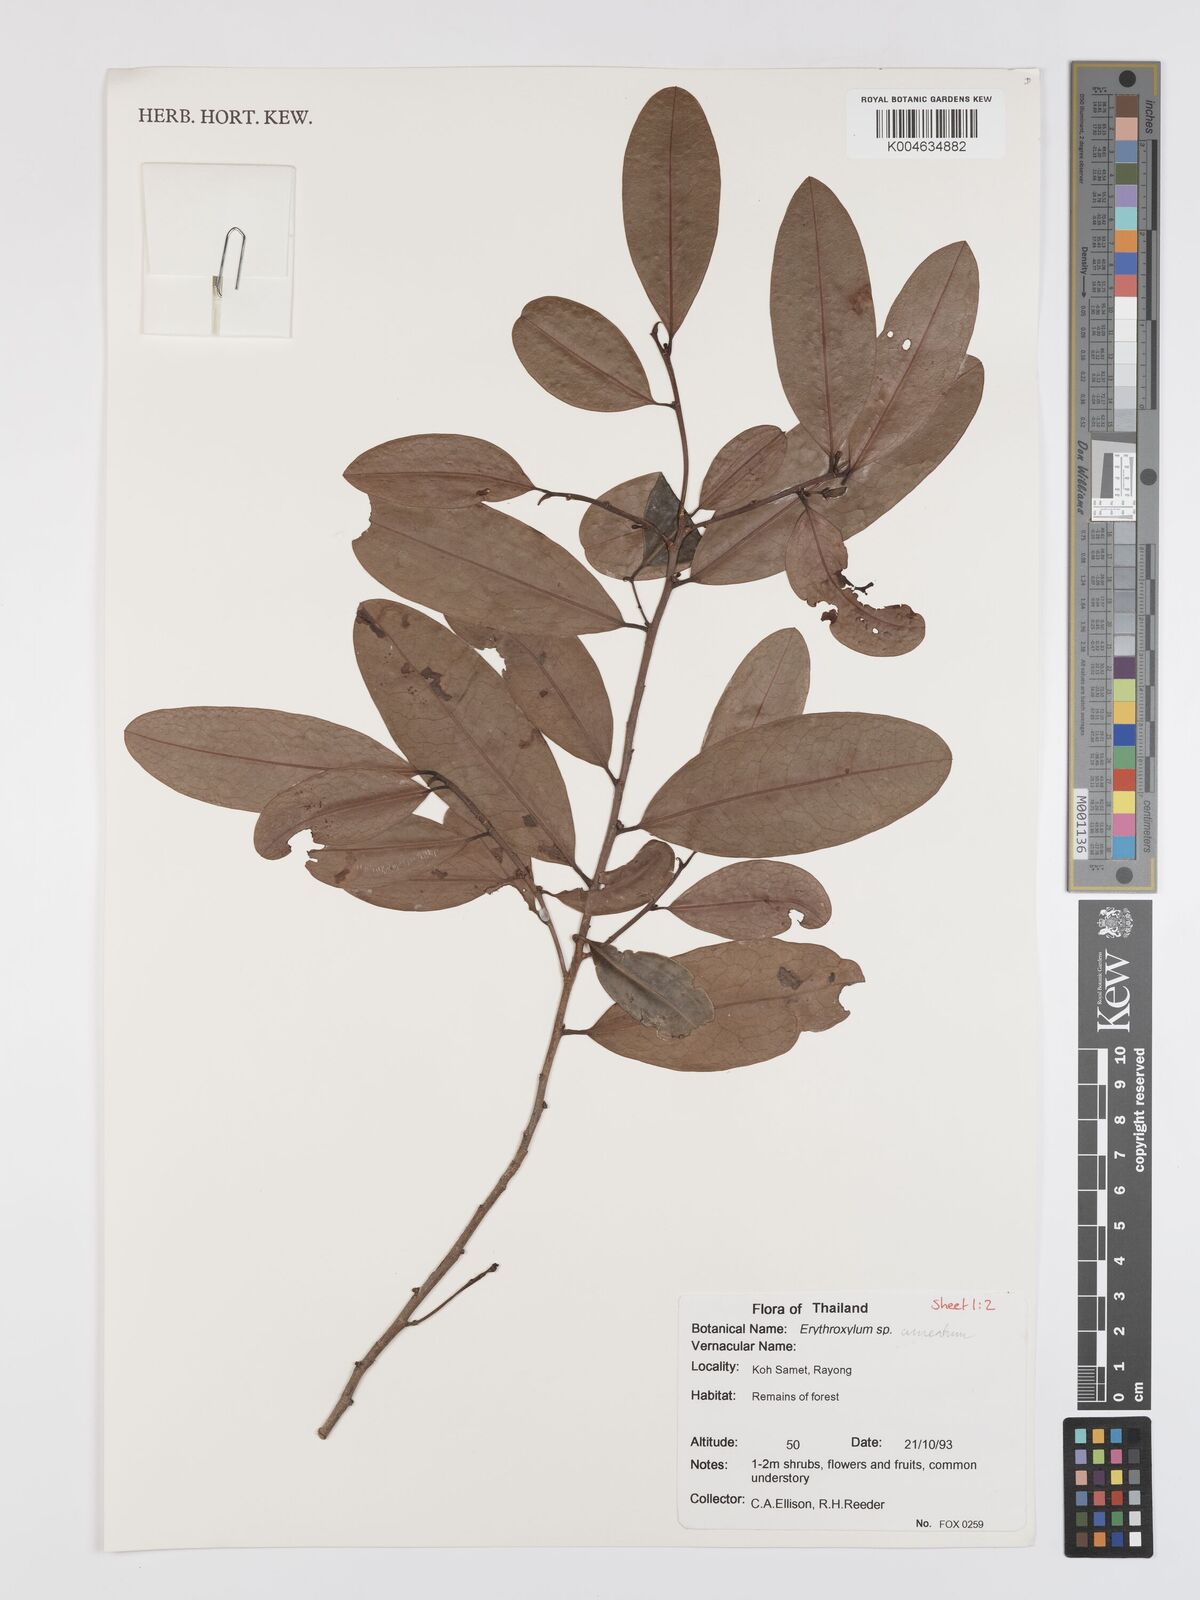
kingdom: Plantae
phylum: Tracheophyta
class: Magnoliopsida
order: Malpighiales
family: Erythroxylaceae
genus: Erythroxylum
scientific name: Erythroxylum
